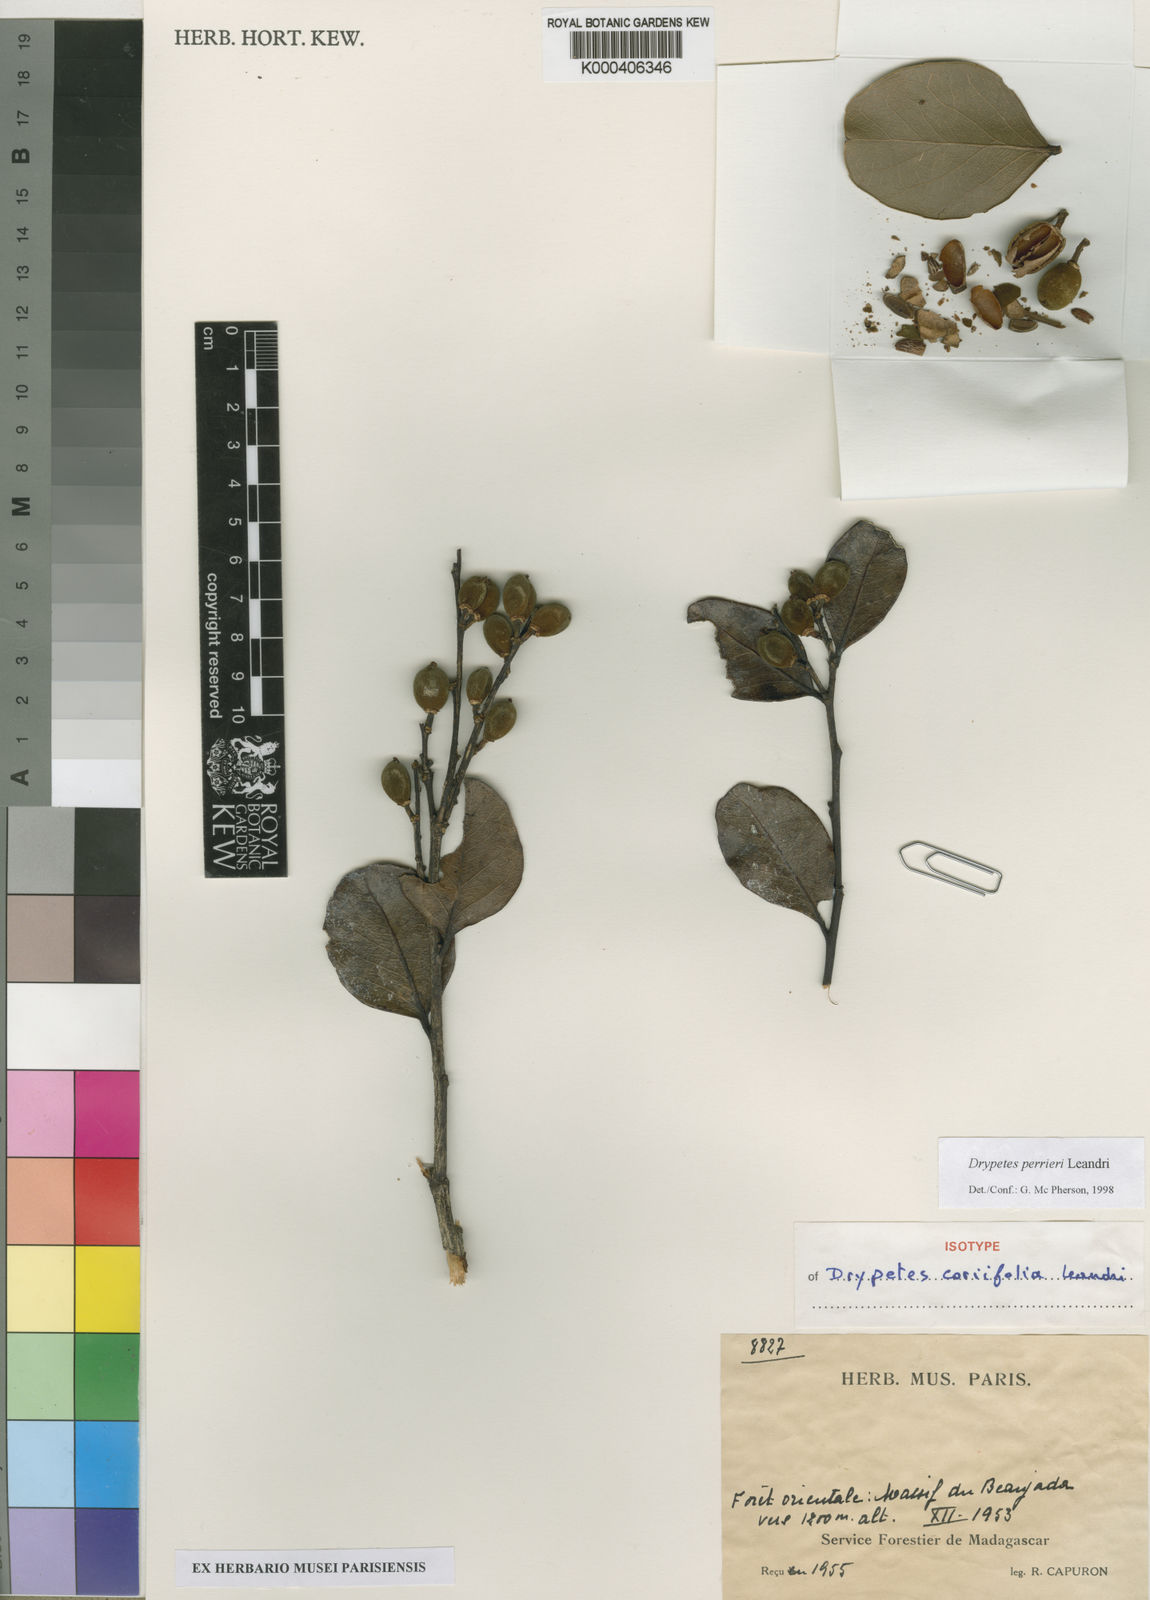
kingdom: Plantae
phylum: Tracheophyta
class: Magnoliopsida
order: Malpighiales
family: Putranjivaceae
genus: Drypetes
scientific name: Drypetes
